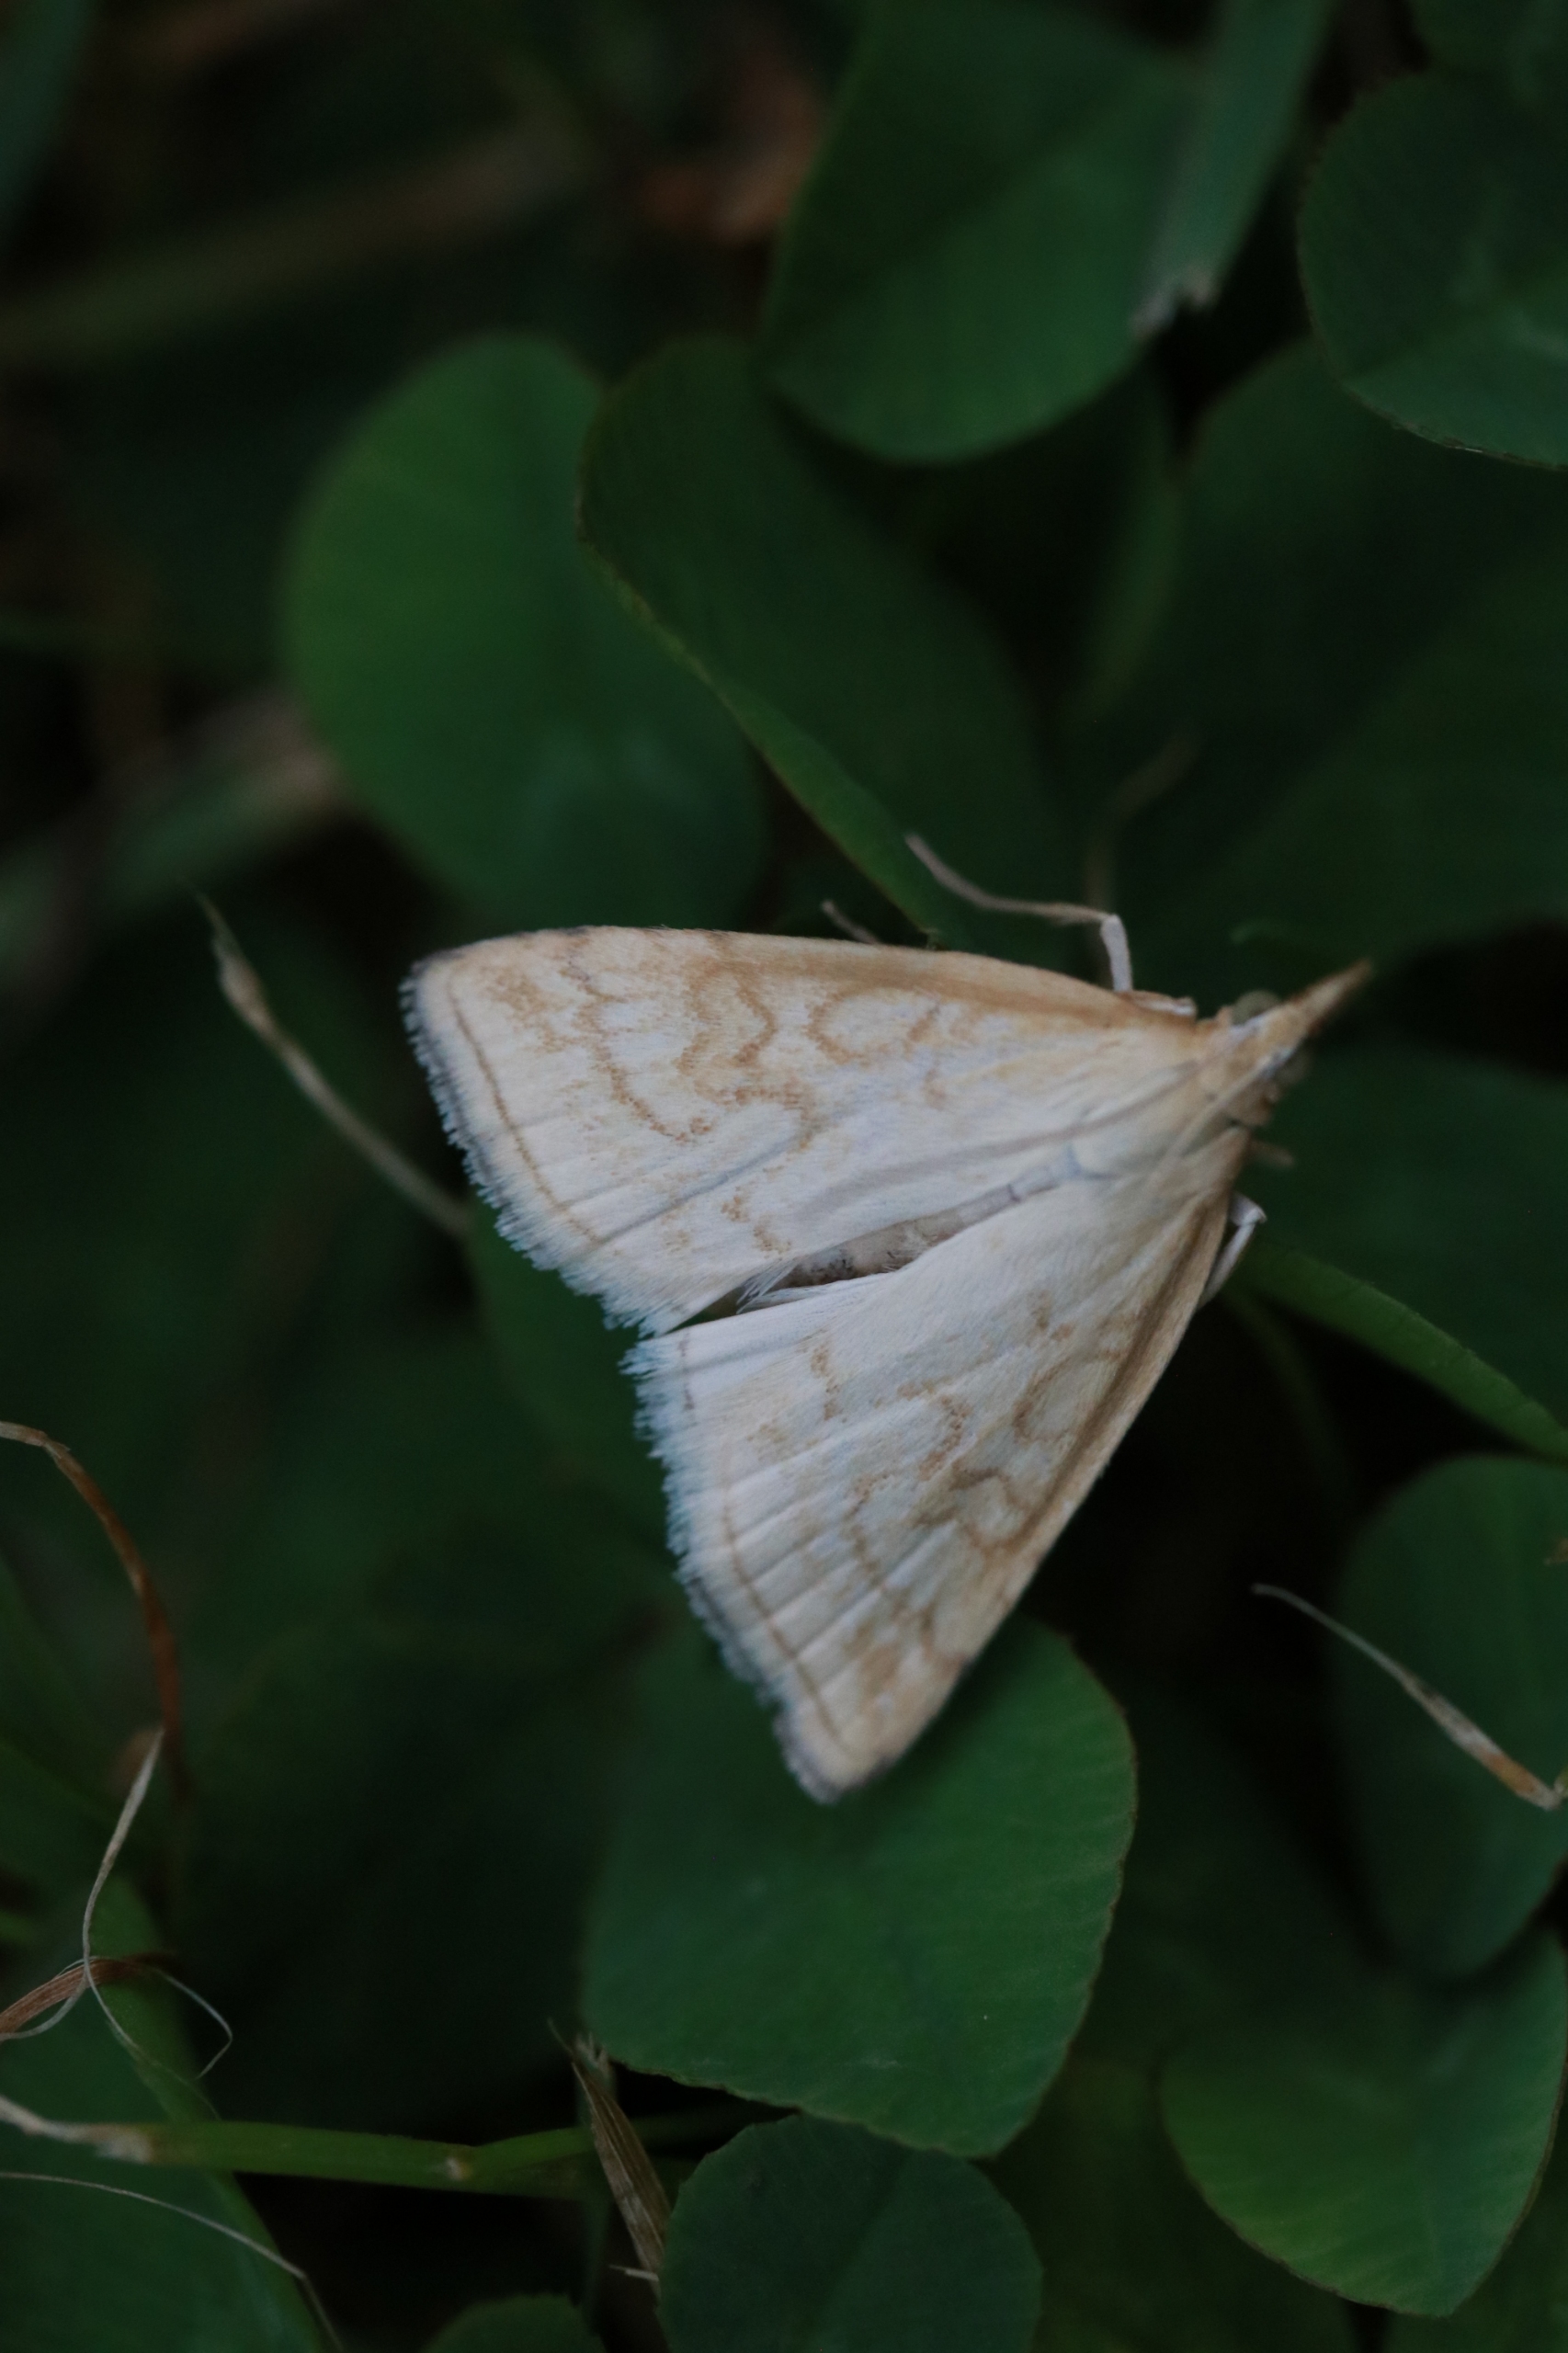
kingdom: Animalia
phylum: Arthropoda
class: Insecta
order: Lepidoptera
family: Crambidae
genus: Udea
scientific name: Udea lutealis
